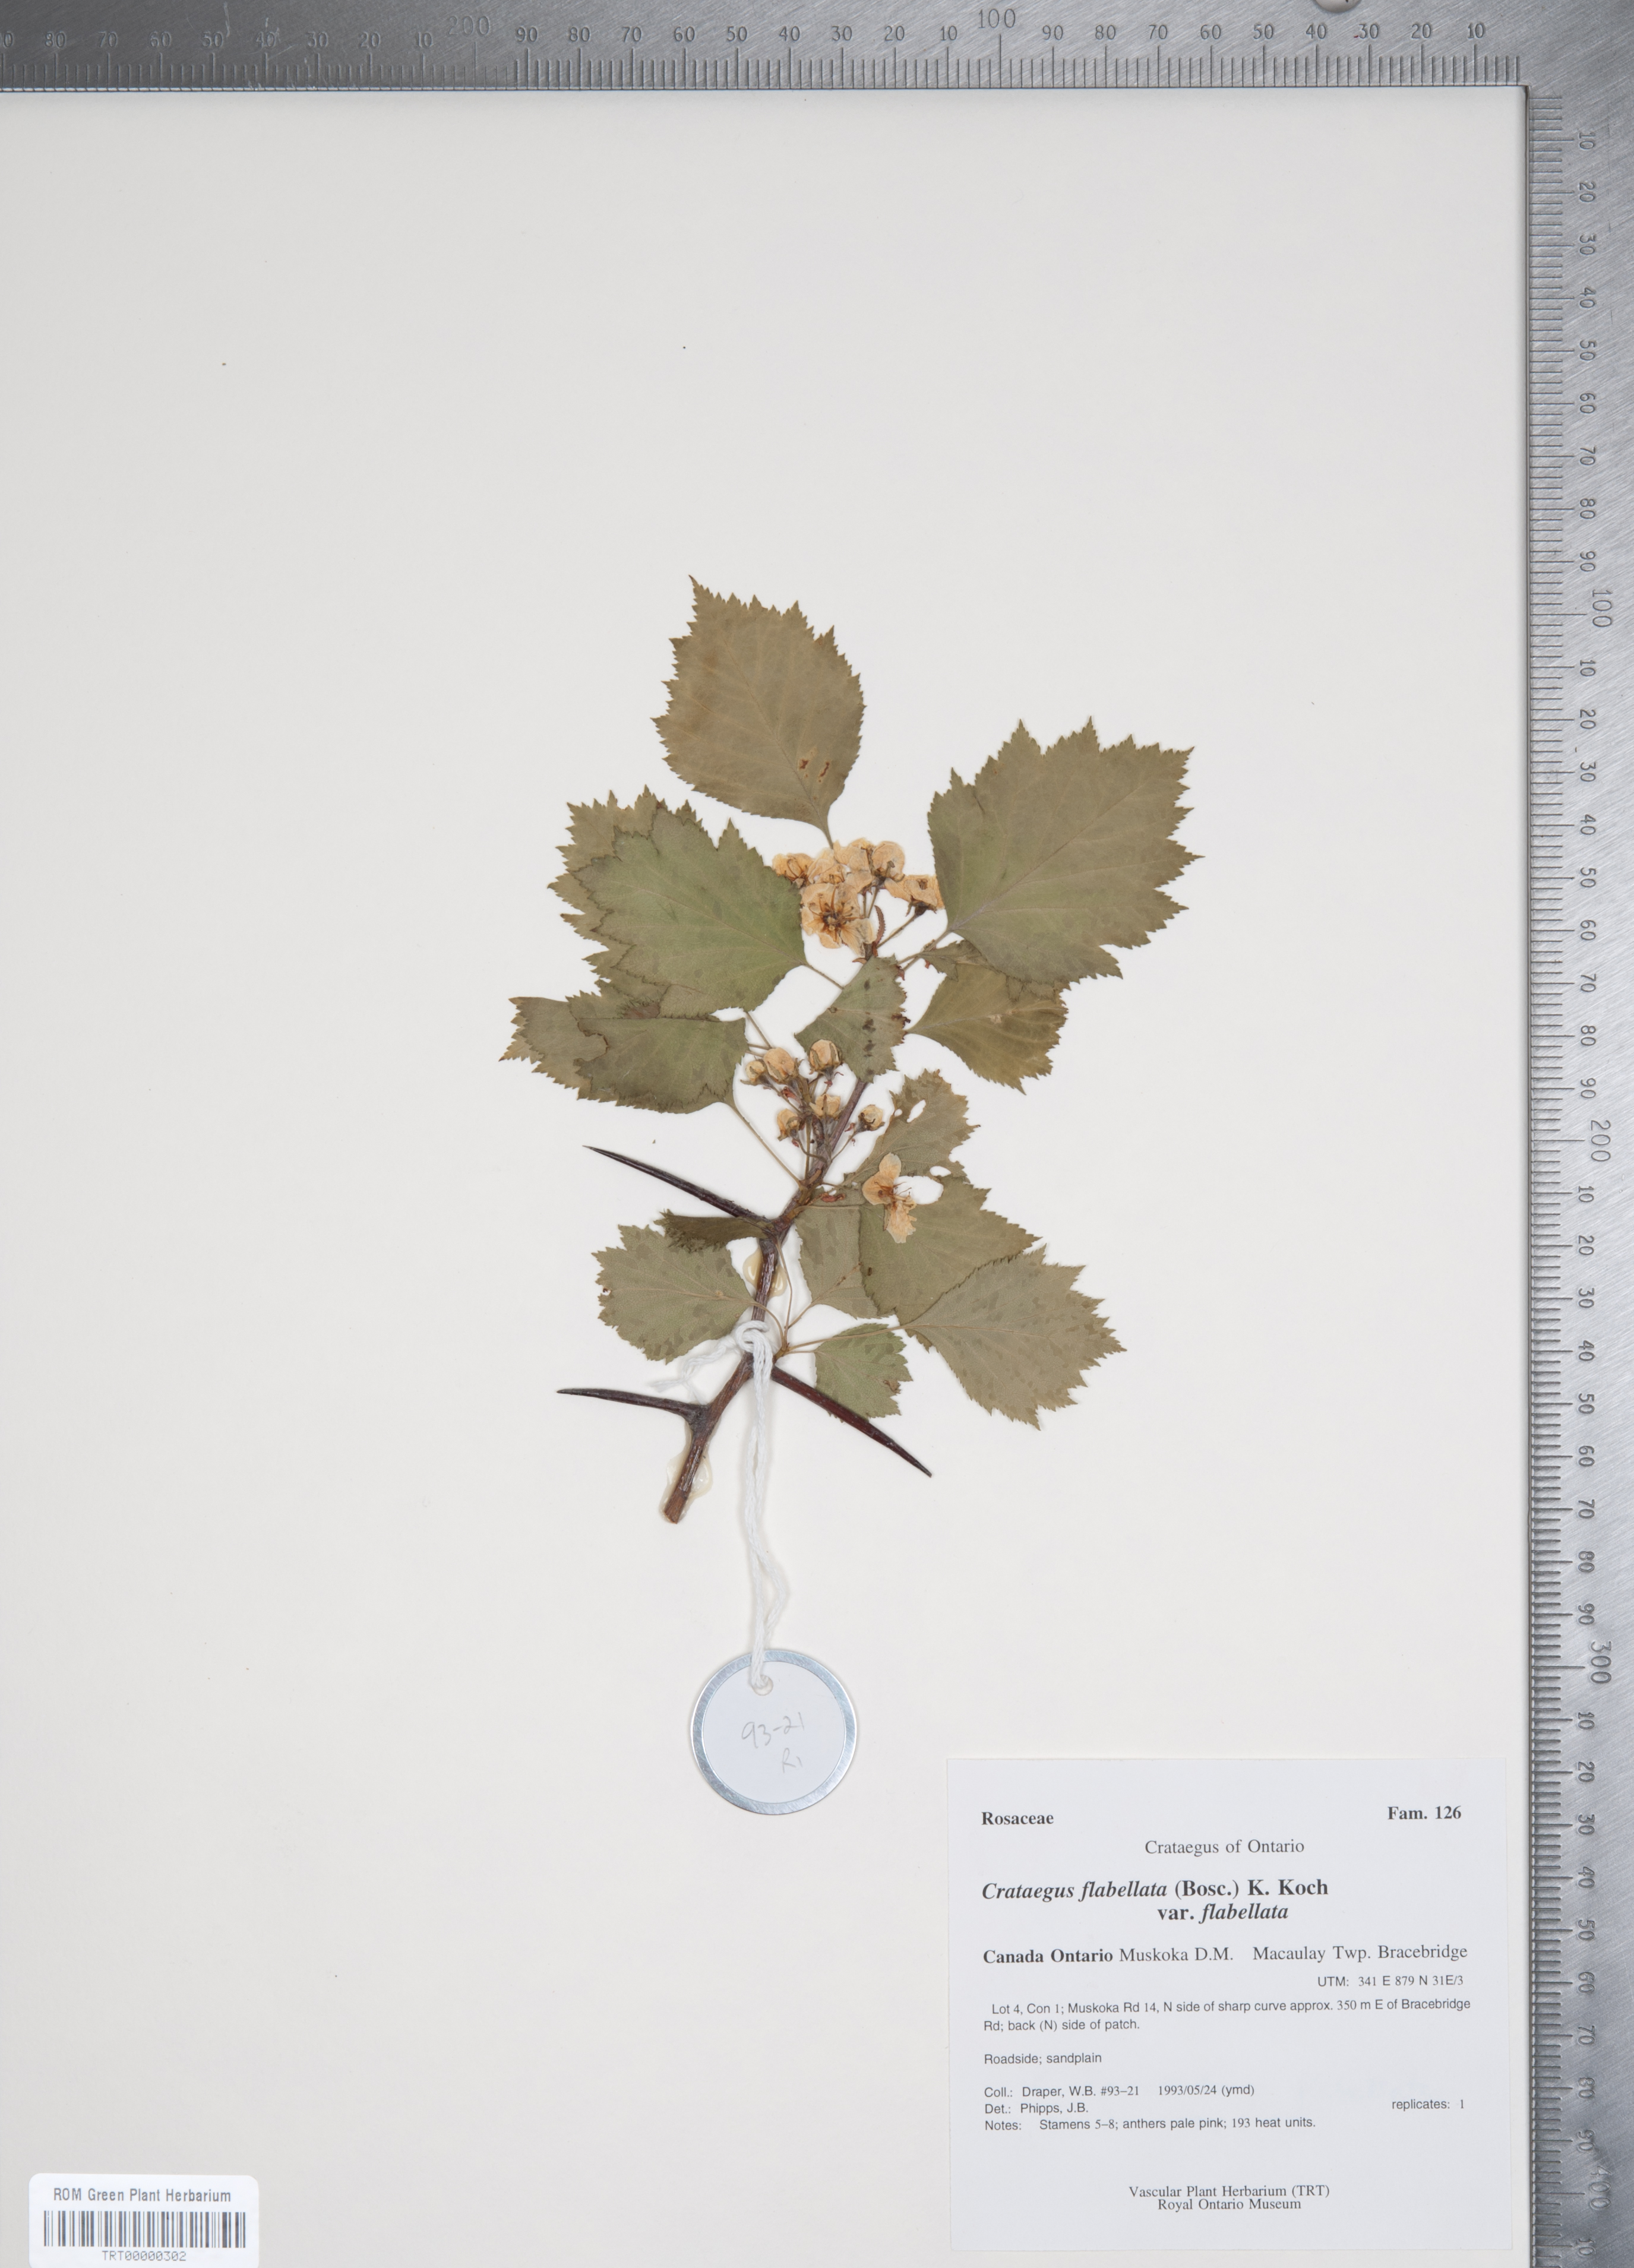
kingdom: Plantae
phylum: Tracheophyta
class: Magnoliopsida
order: Rosales
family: Rosaceae
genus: Crataegus
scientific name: Crataegus flabellata
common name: Bosc's hawthorn
